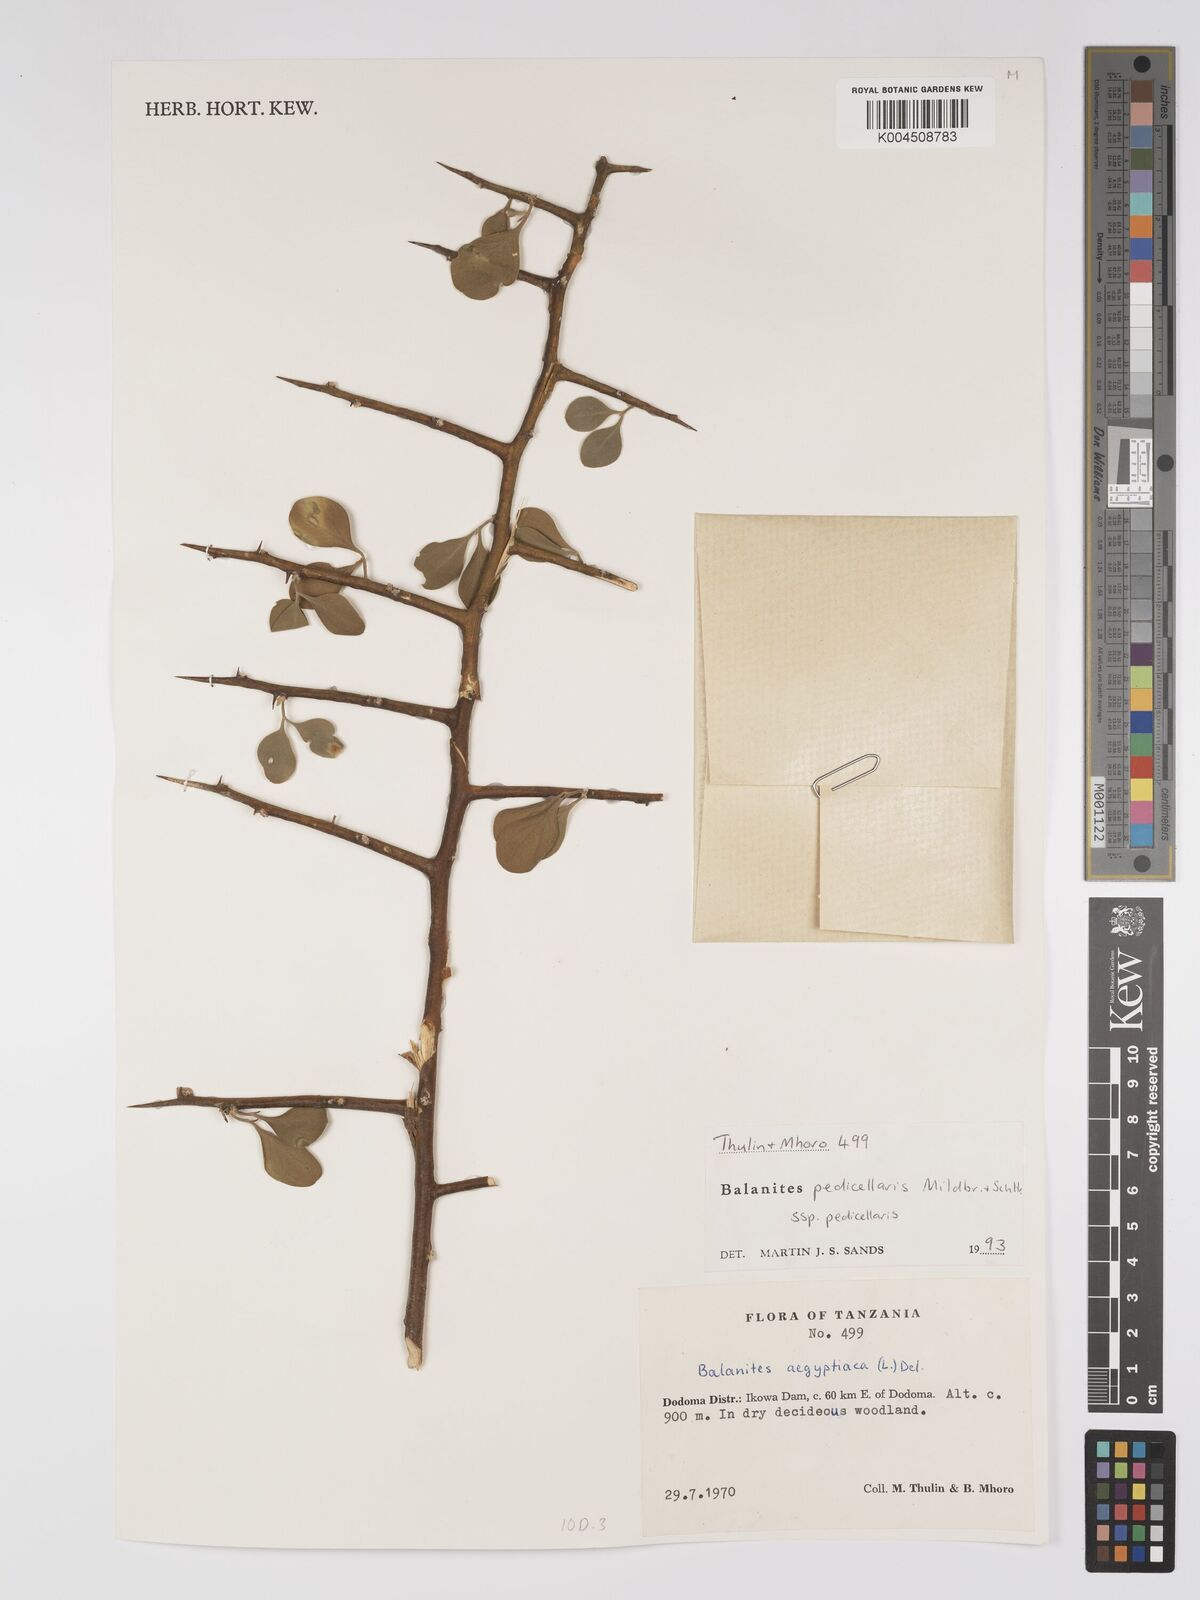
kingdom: Plantae
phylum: Tracheophyta
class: Magnoliopsida
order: Zygophyllales
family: Zygophyllaceae
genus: Balanites
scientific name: Balanites pedicellaris
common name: Small green-thorn
